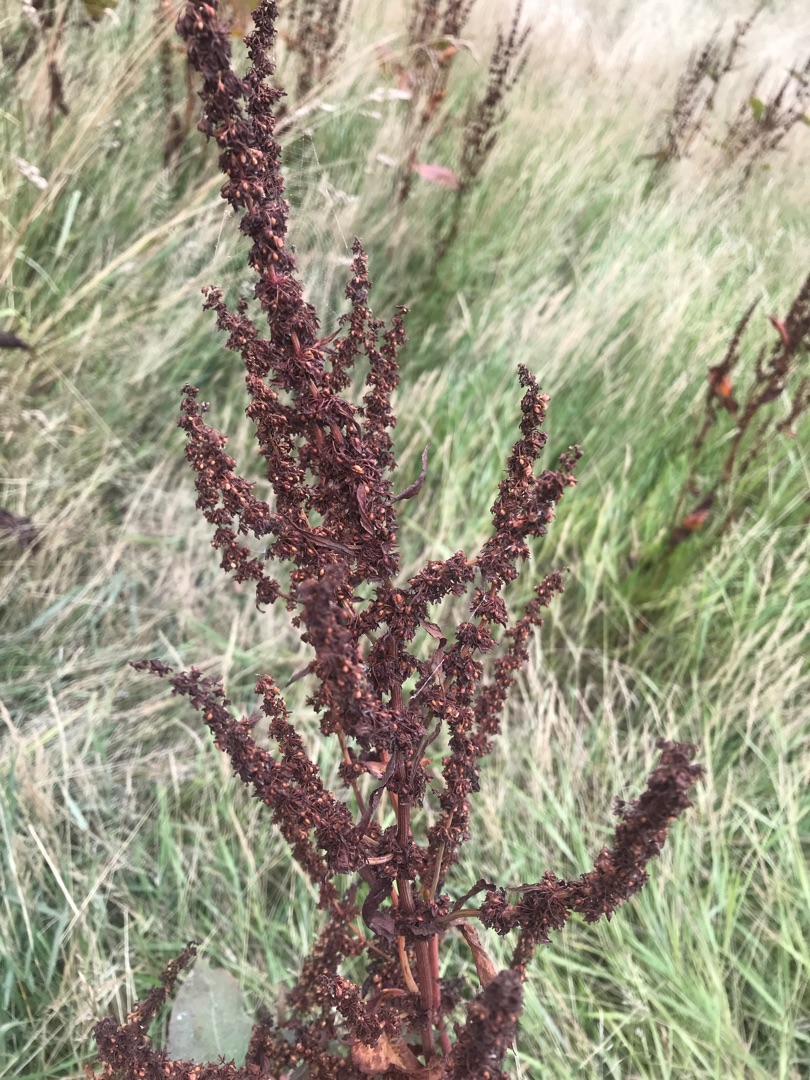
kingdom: Plantae
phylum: Tracheophyta
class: Magnoliopsida
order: Caryophyllales
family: Polygonaceae
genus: Rumex
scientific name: Rumex obtusifolius
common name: Butbladet skræppe
